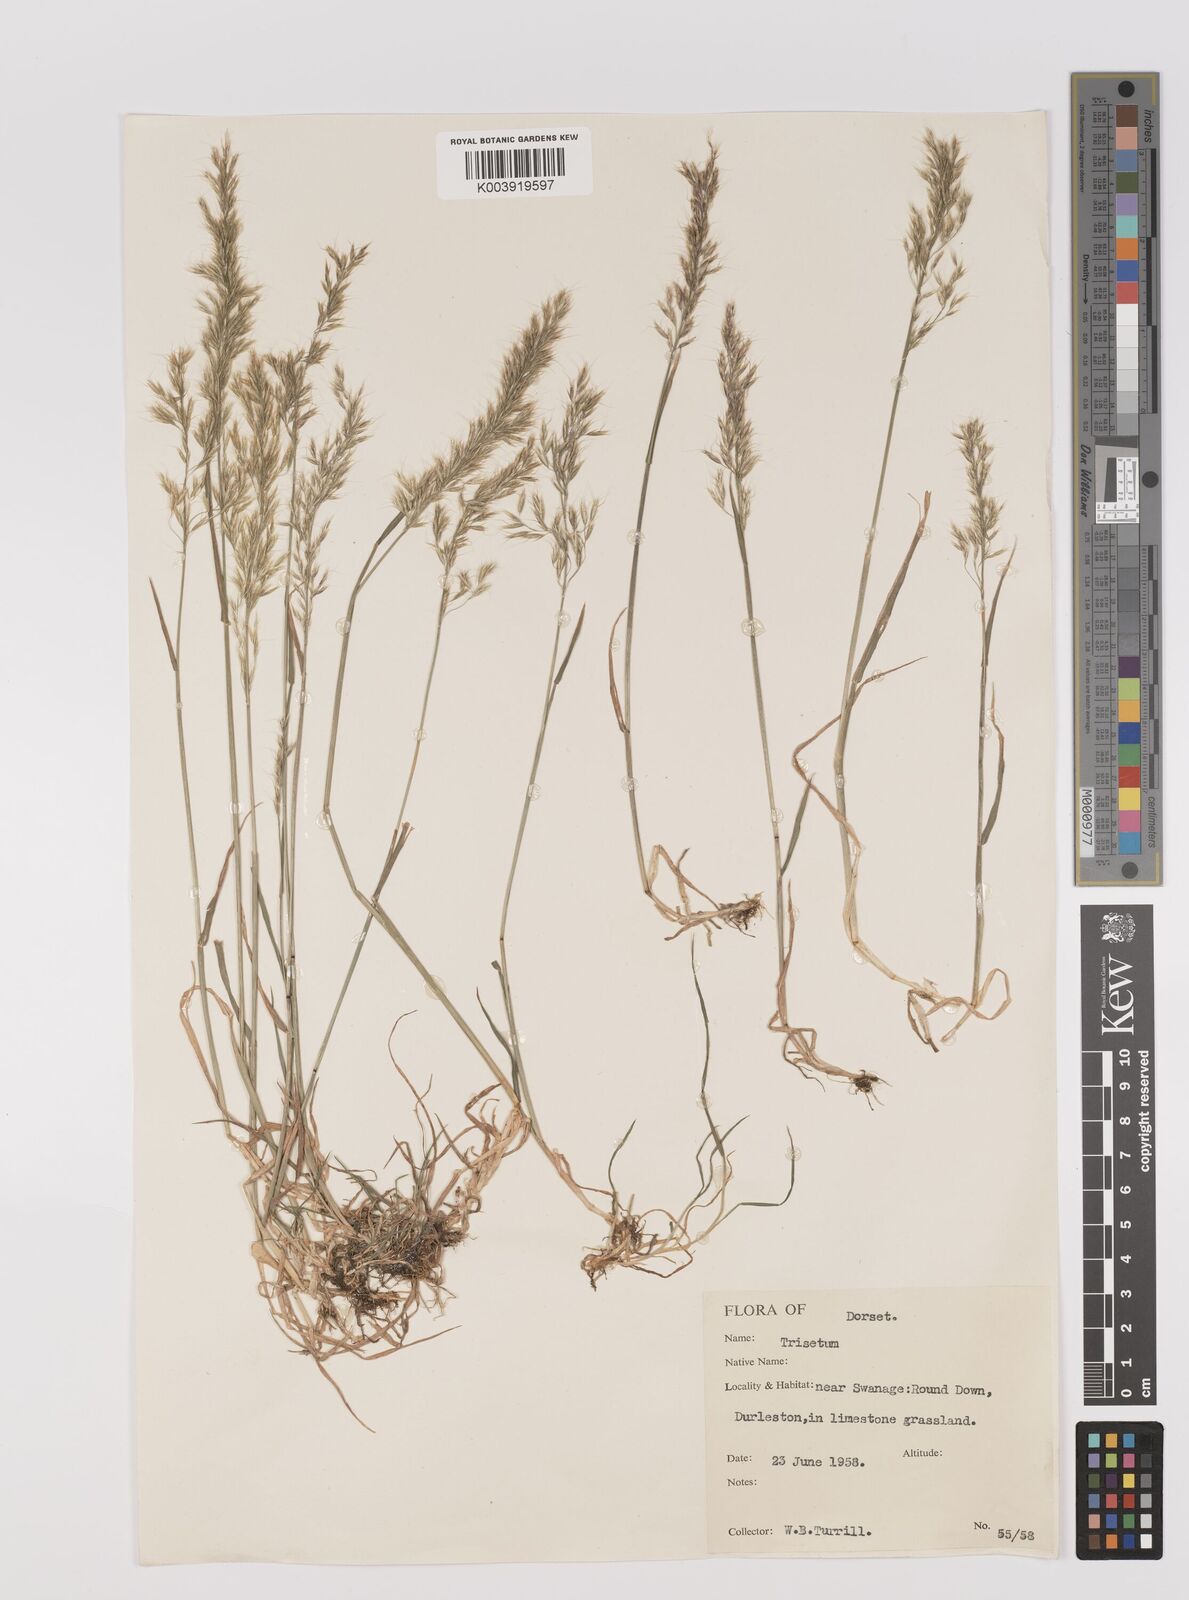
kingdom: Plantae
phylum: Tracheophyta
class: Liliopsida
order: Poales
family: Poaceae
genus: Trisetum
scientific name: Trisetum flavescens
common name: Yellow oat-grass
